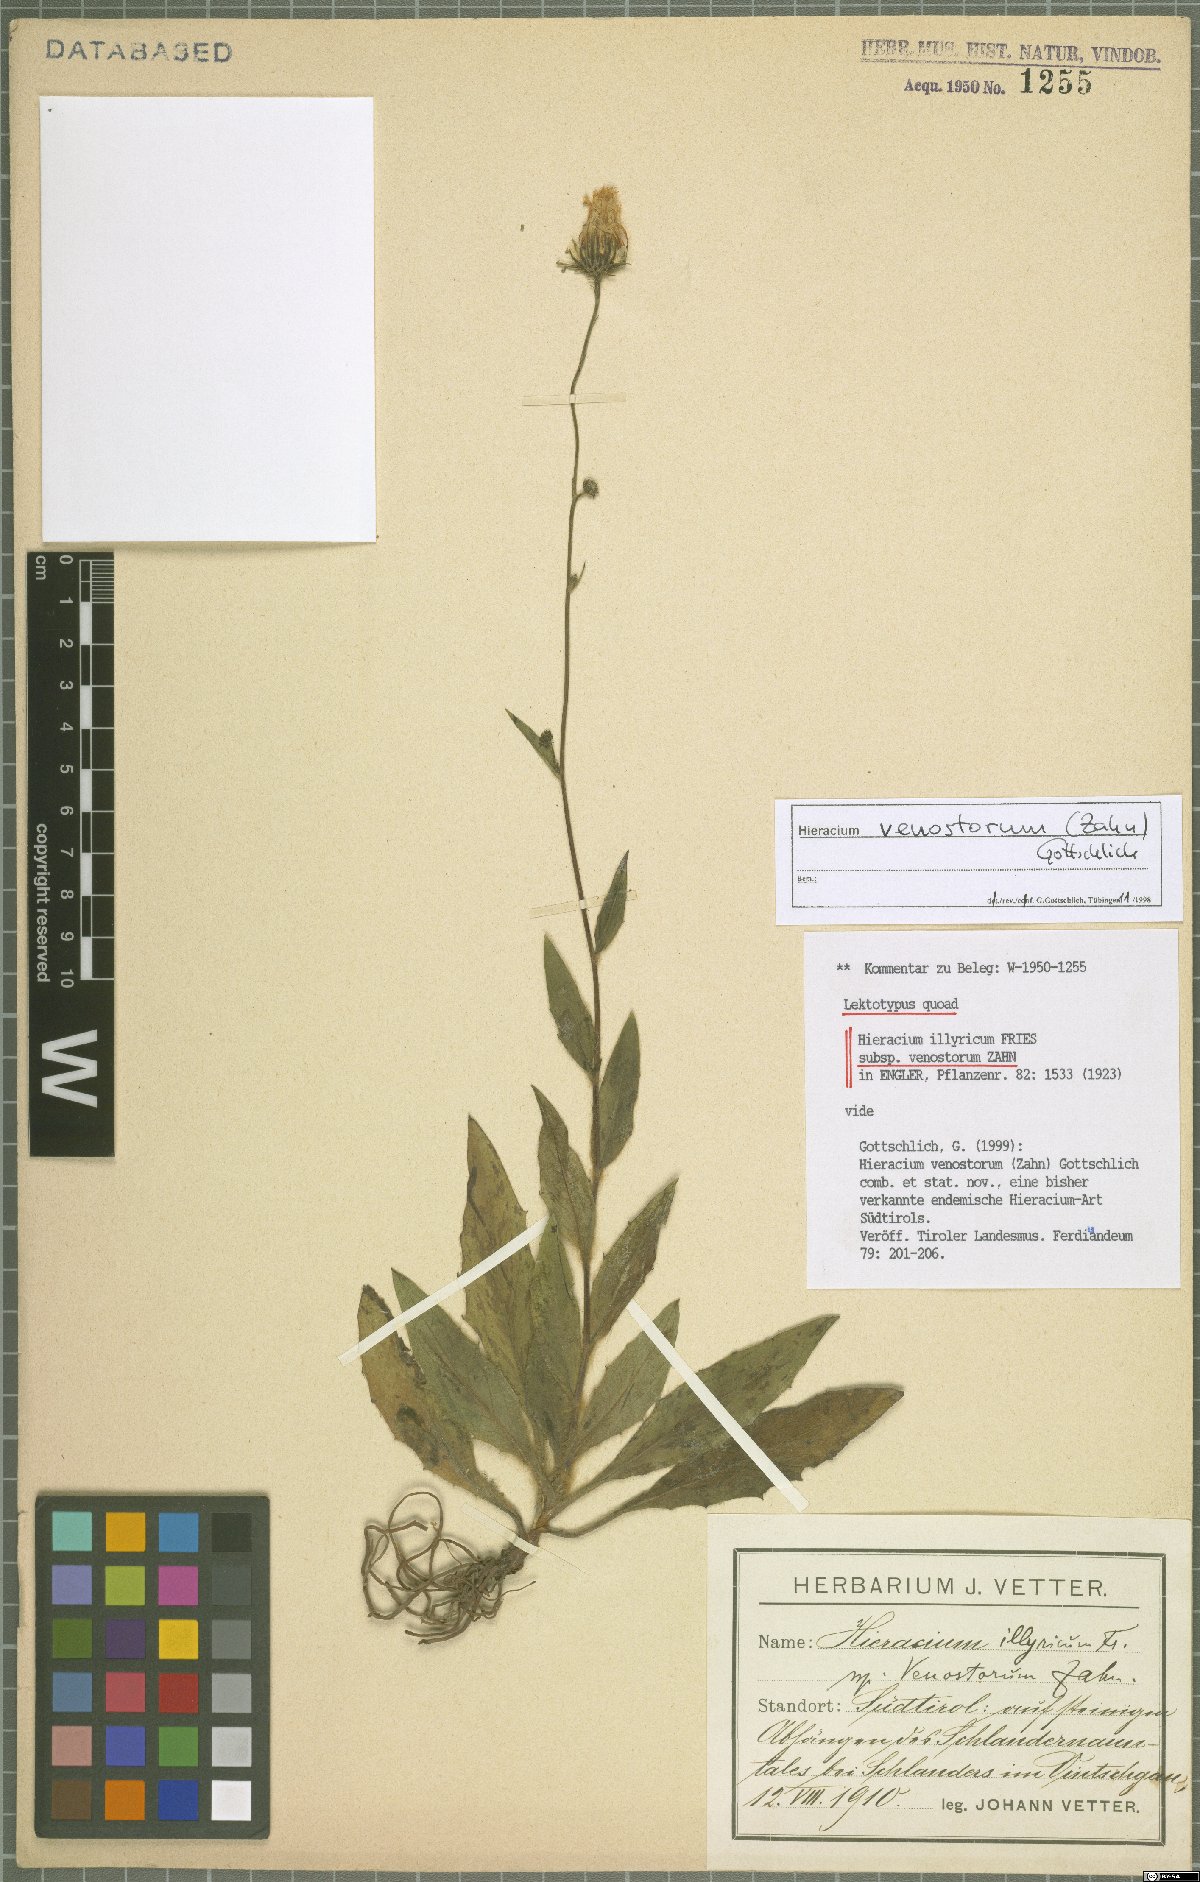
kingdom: Plantae
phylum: Tracheophyta
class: Magnoliopsida
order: Asterales
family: Asteraceae
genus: Hieracium
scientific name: Hieracium venostorum
